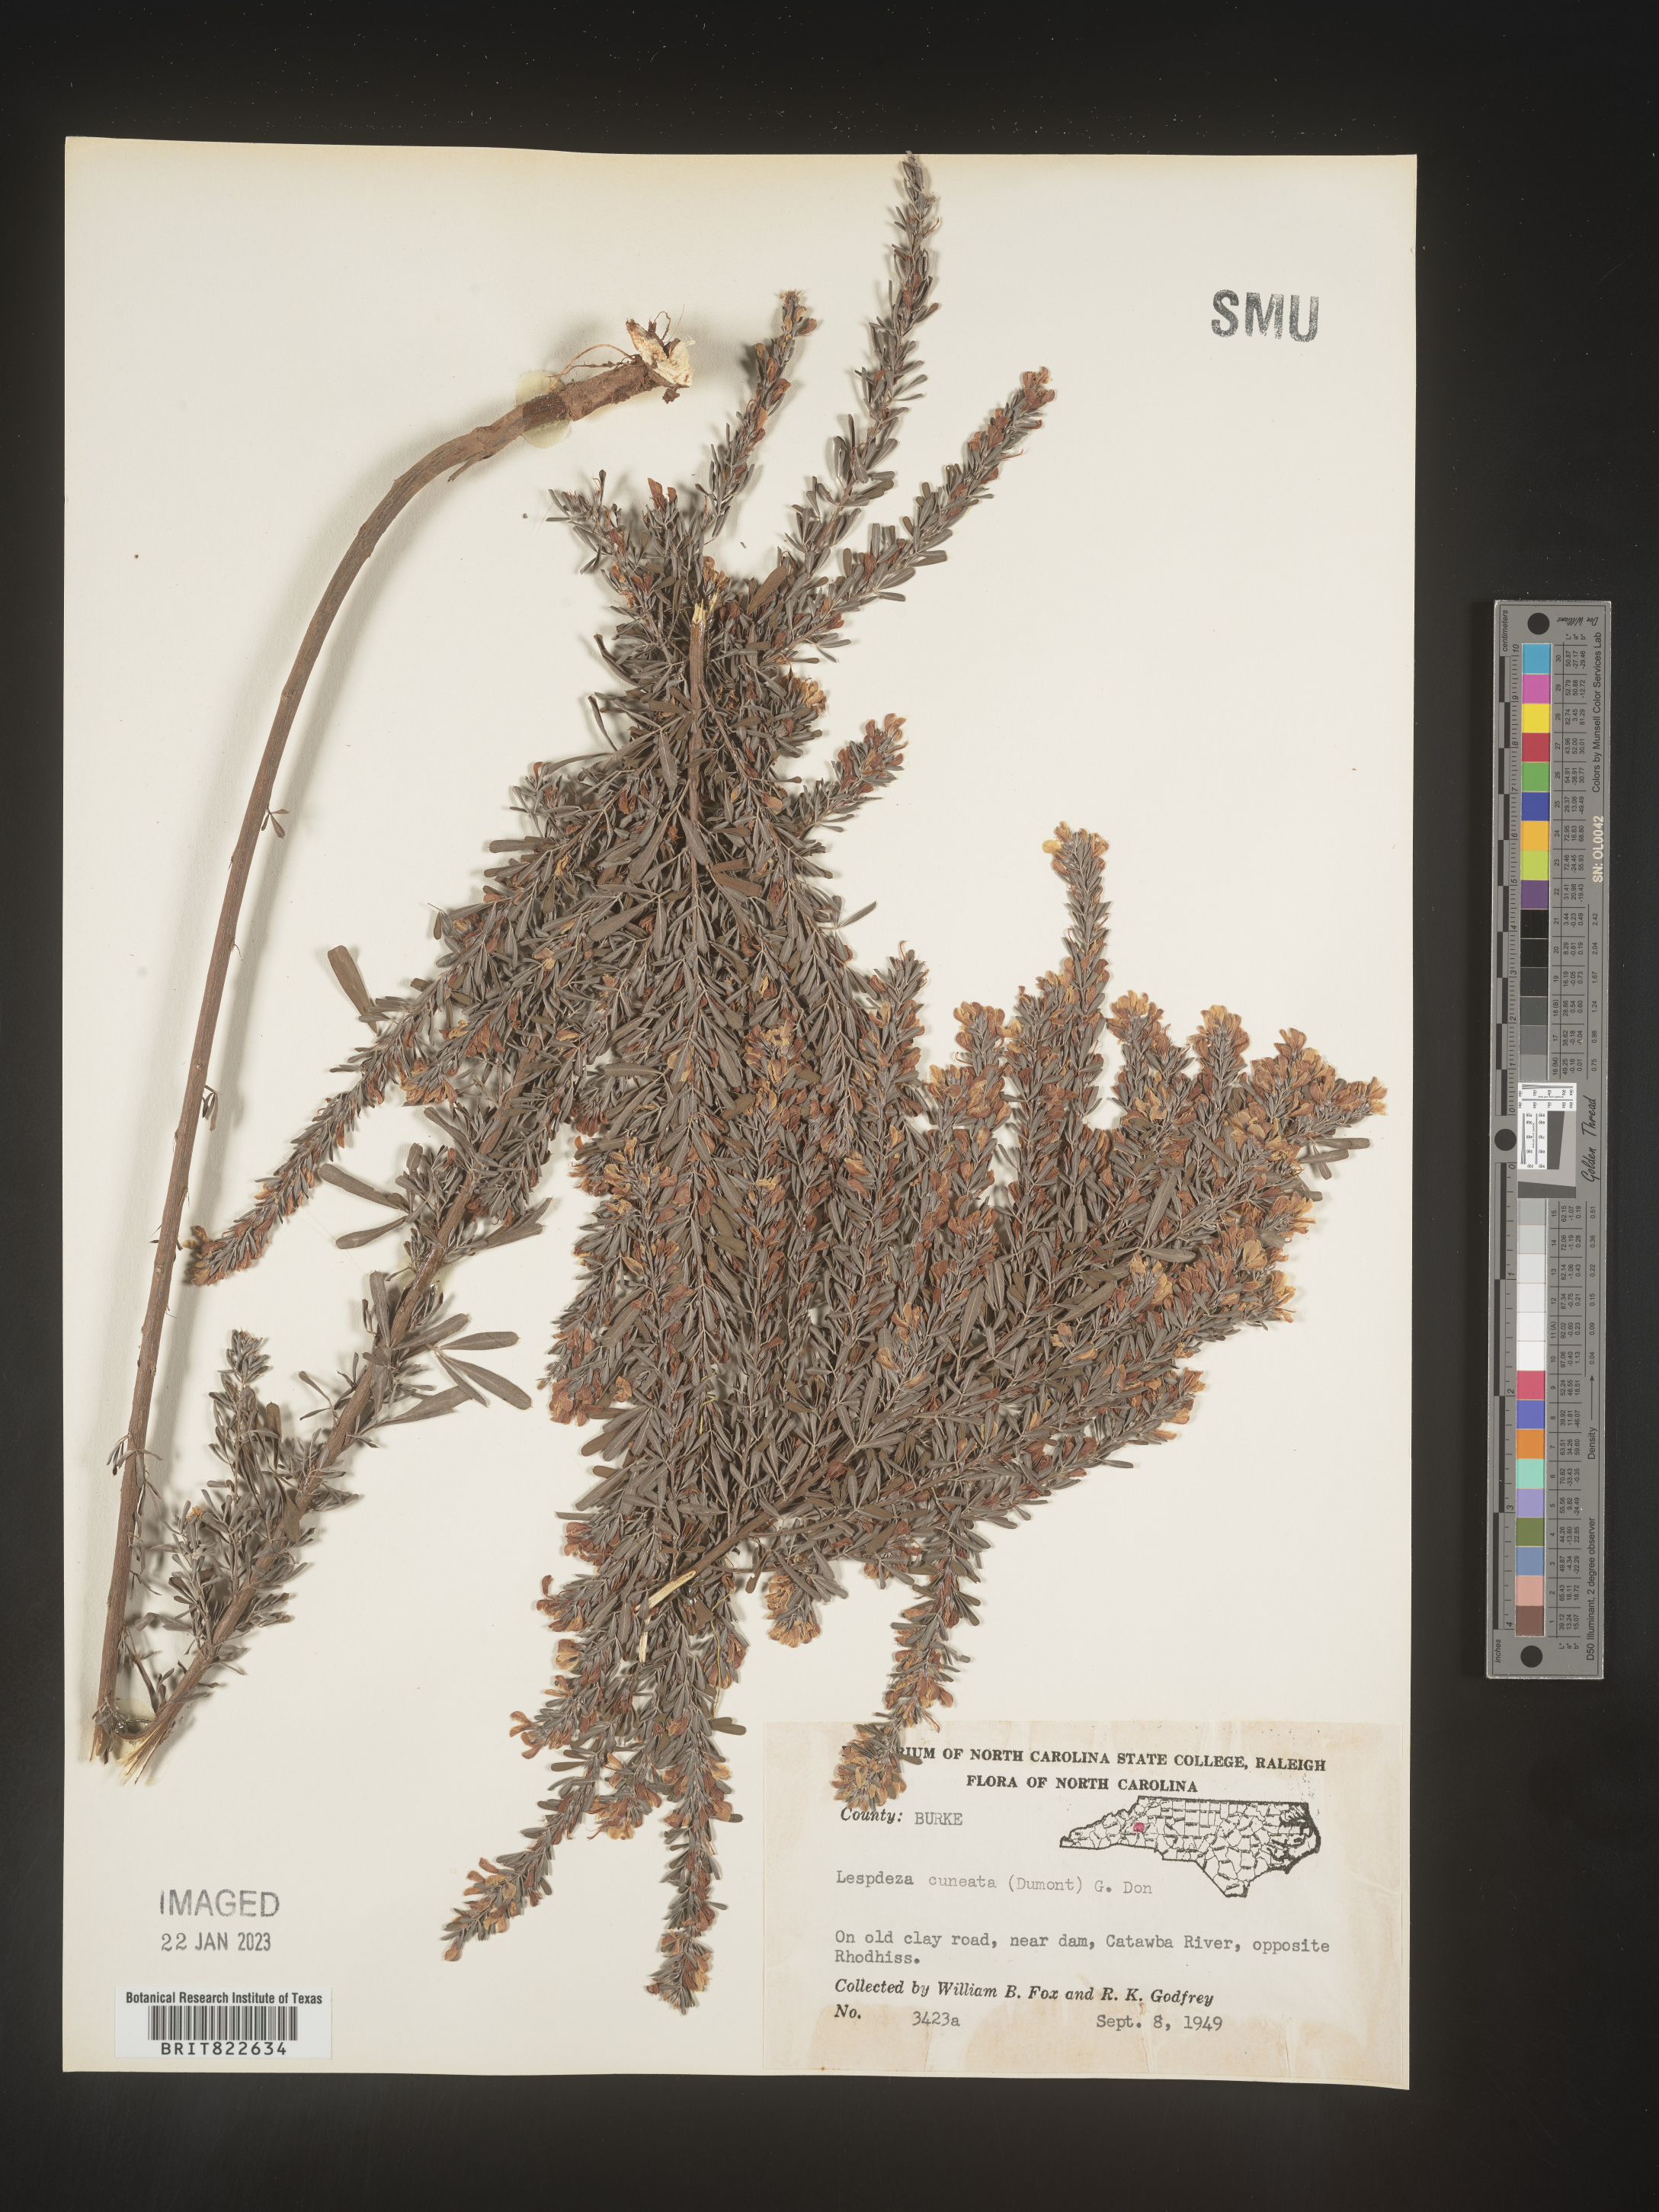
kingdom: Plantae
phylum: Tracheophyta
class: Magnoliopsida
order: Fabales
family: Fabaceae
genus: Lespedeza
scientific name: Lespedeza cuneata
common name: Chinese bush-clover
